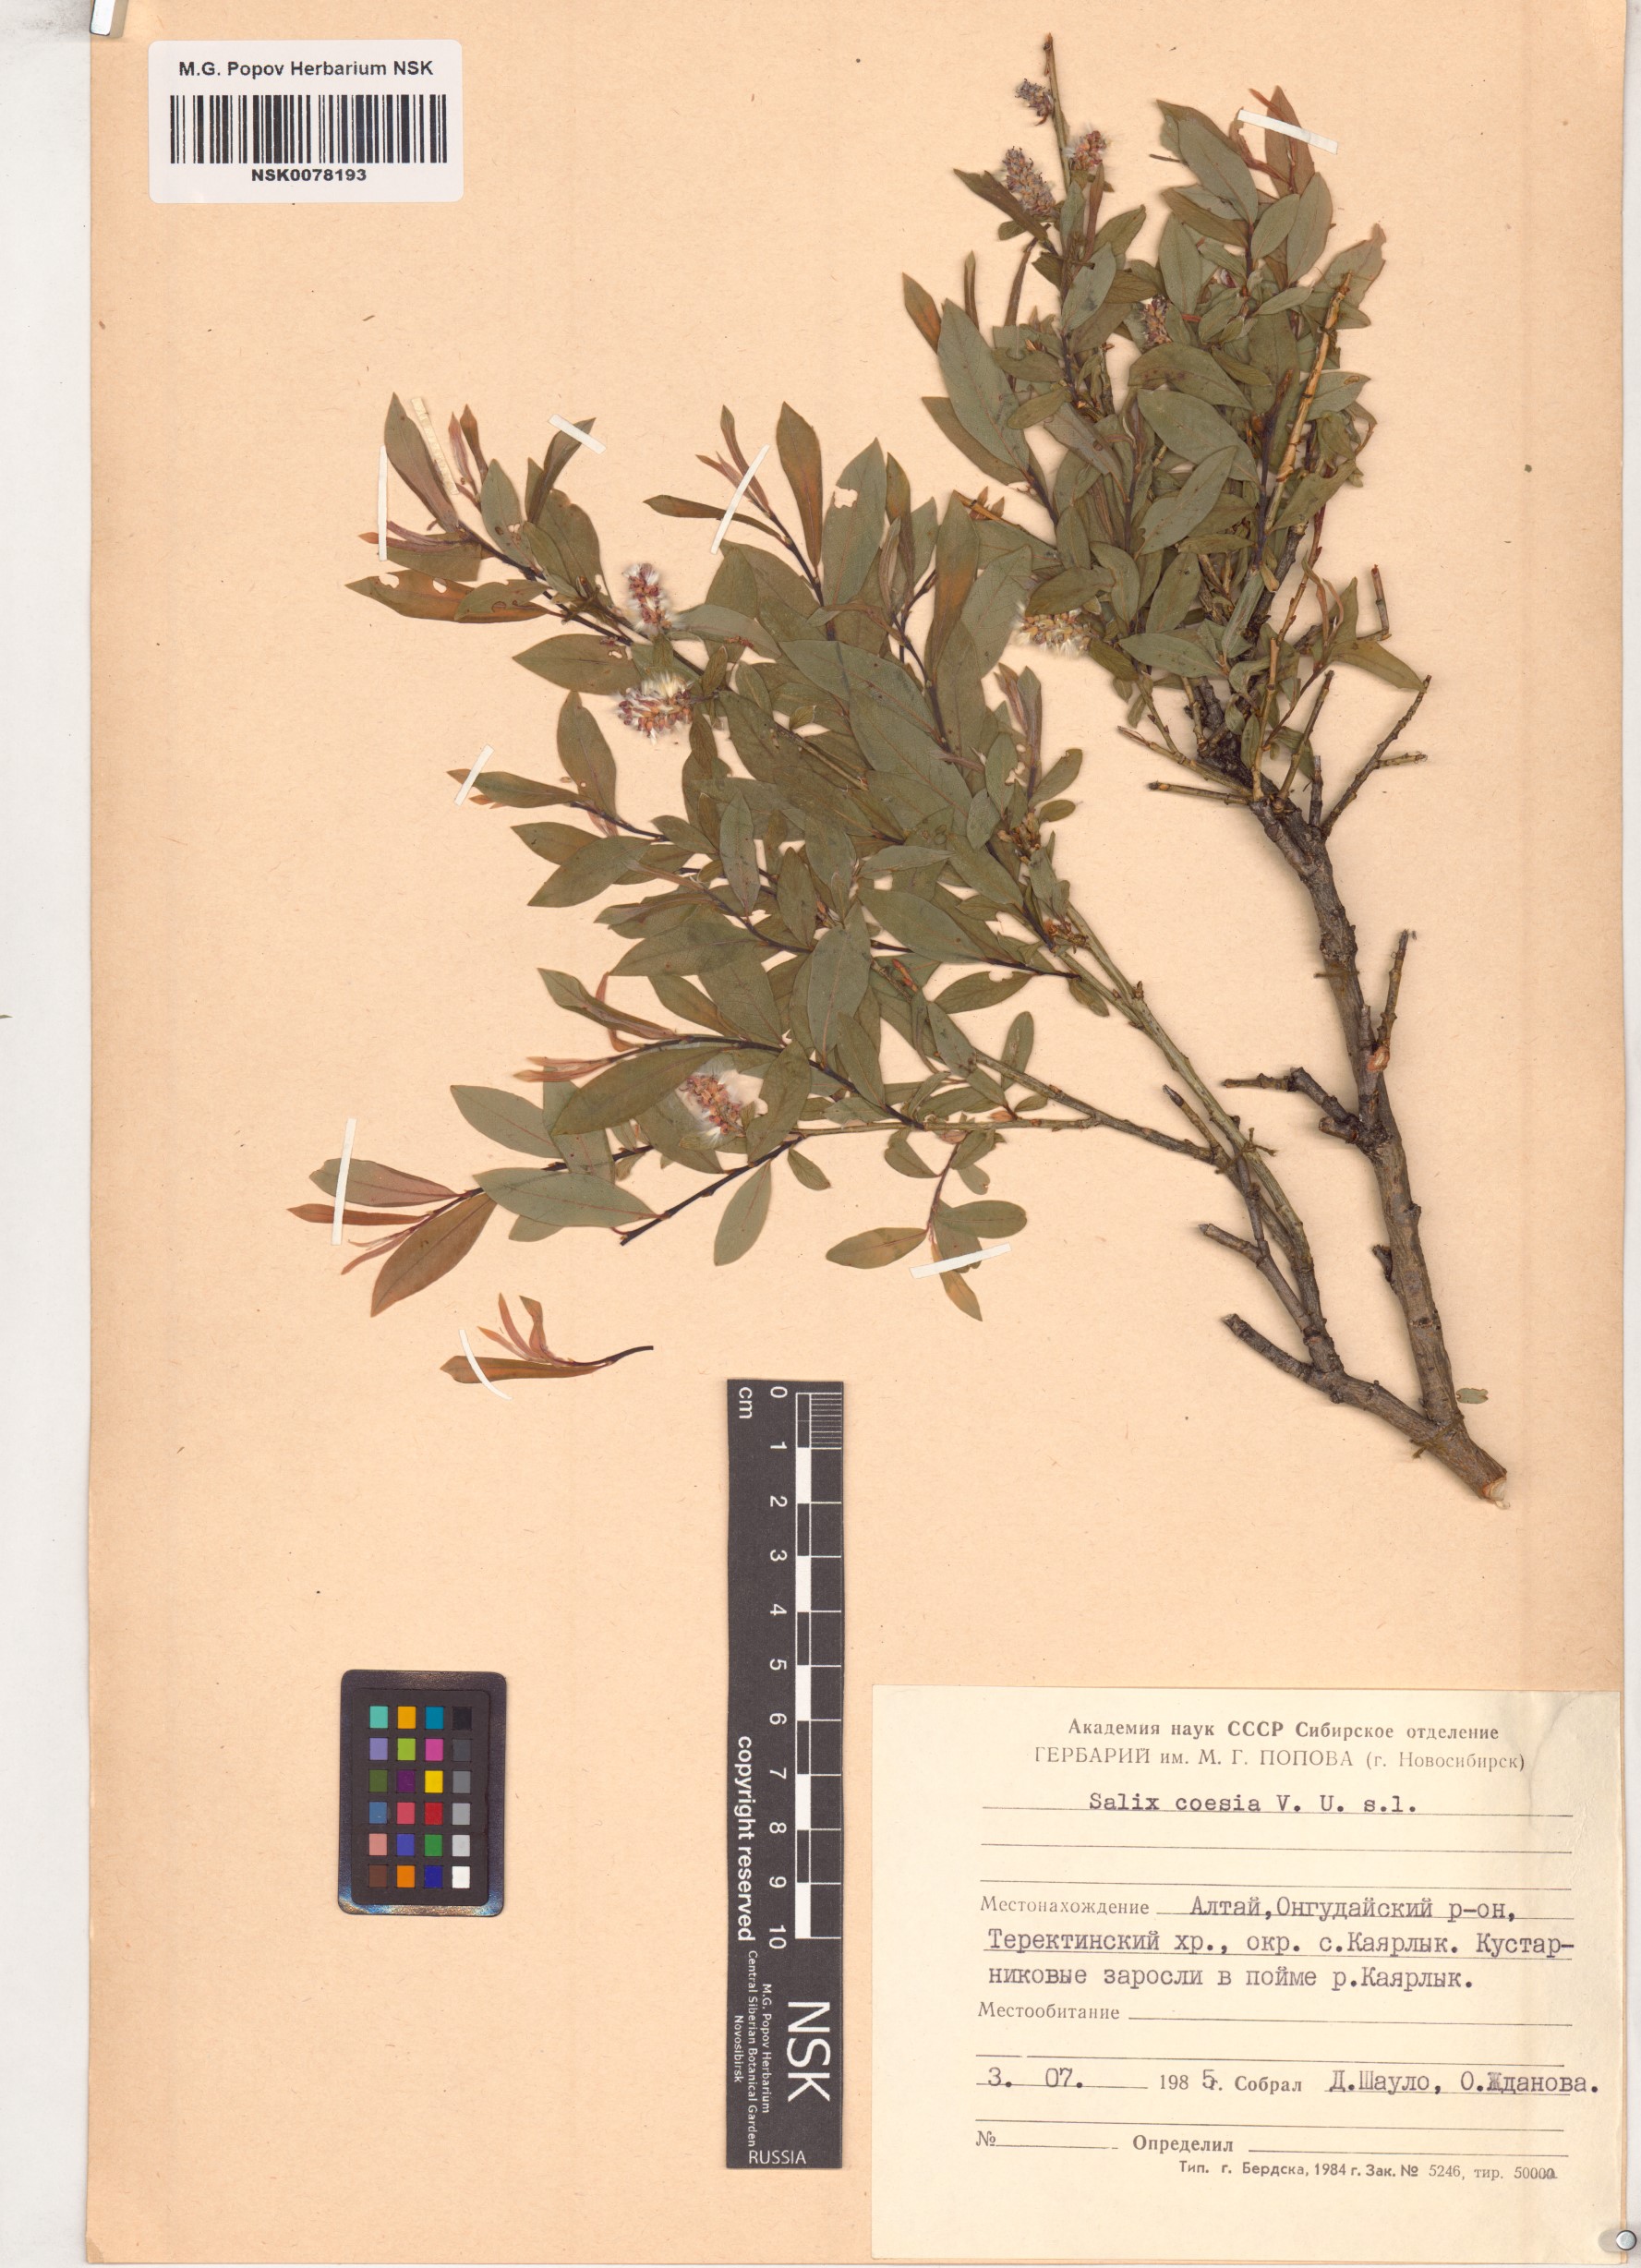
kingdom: Plantae
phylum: Tracheophyta
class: Magnoliopsida
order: Malpighiales
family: Salicaceae
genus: Salix
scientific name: Salix caesia
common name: Blue willow
